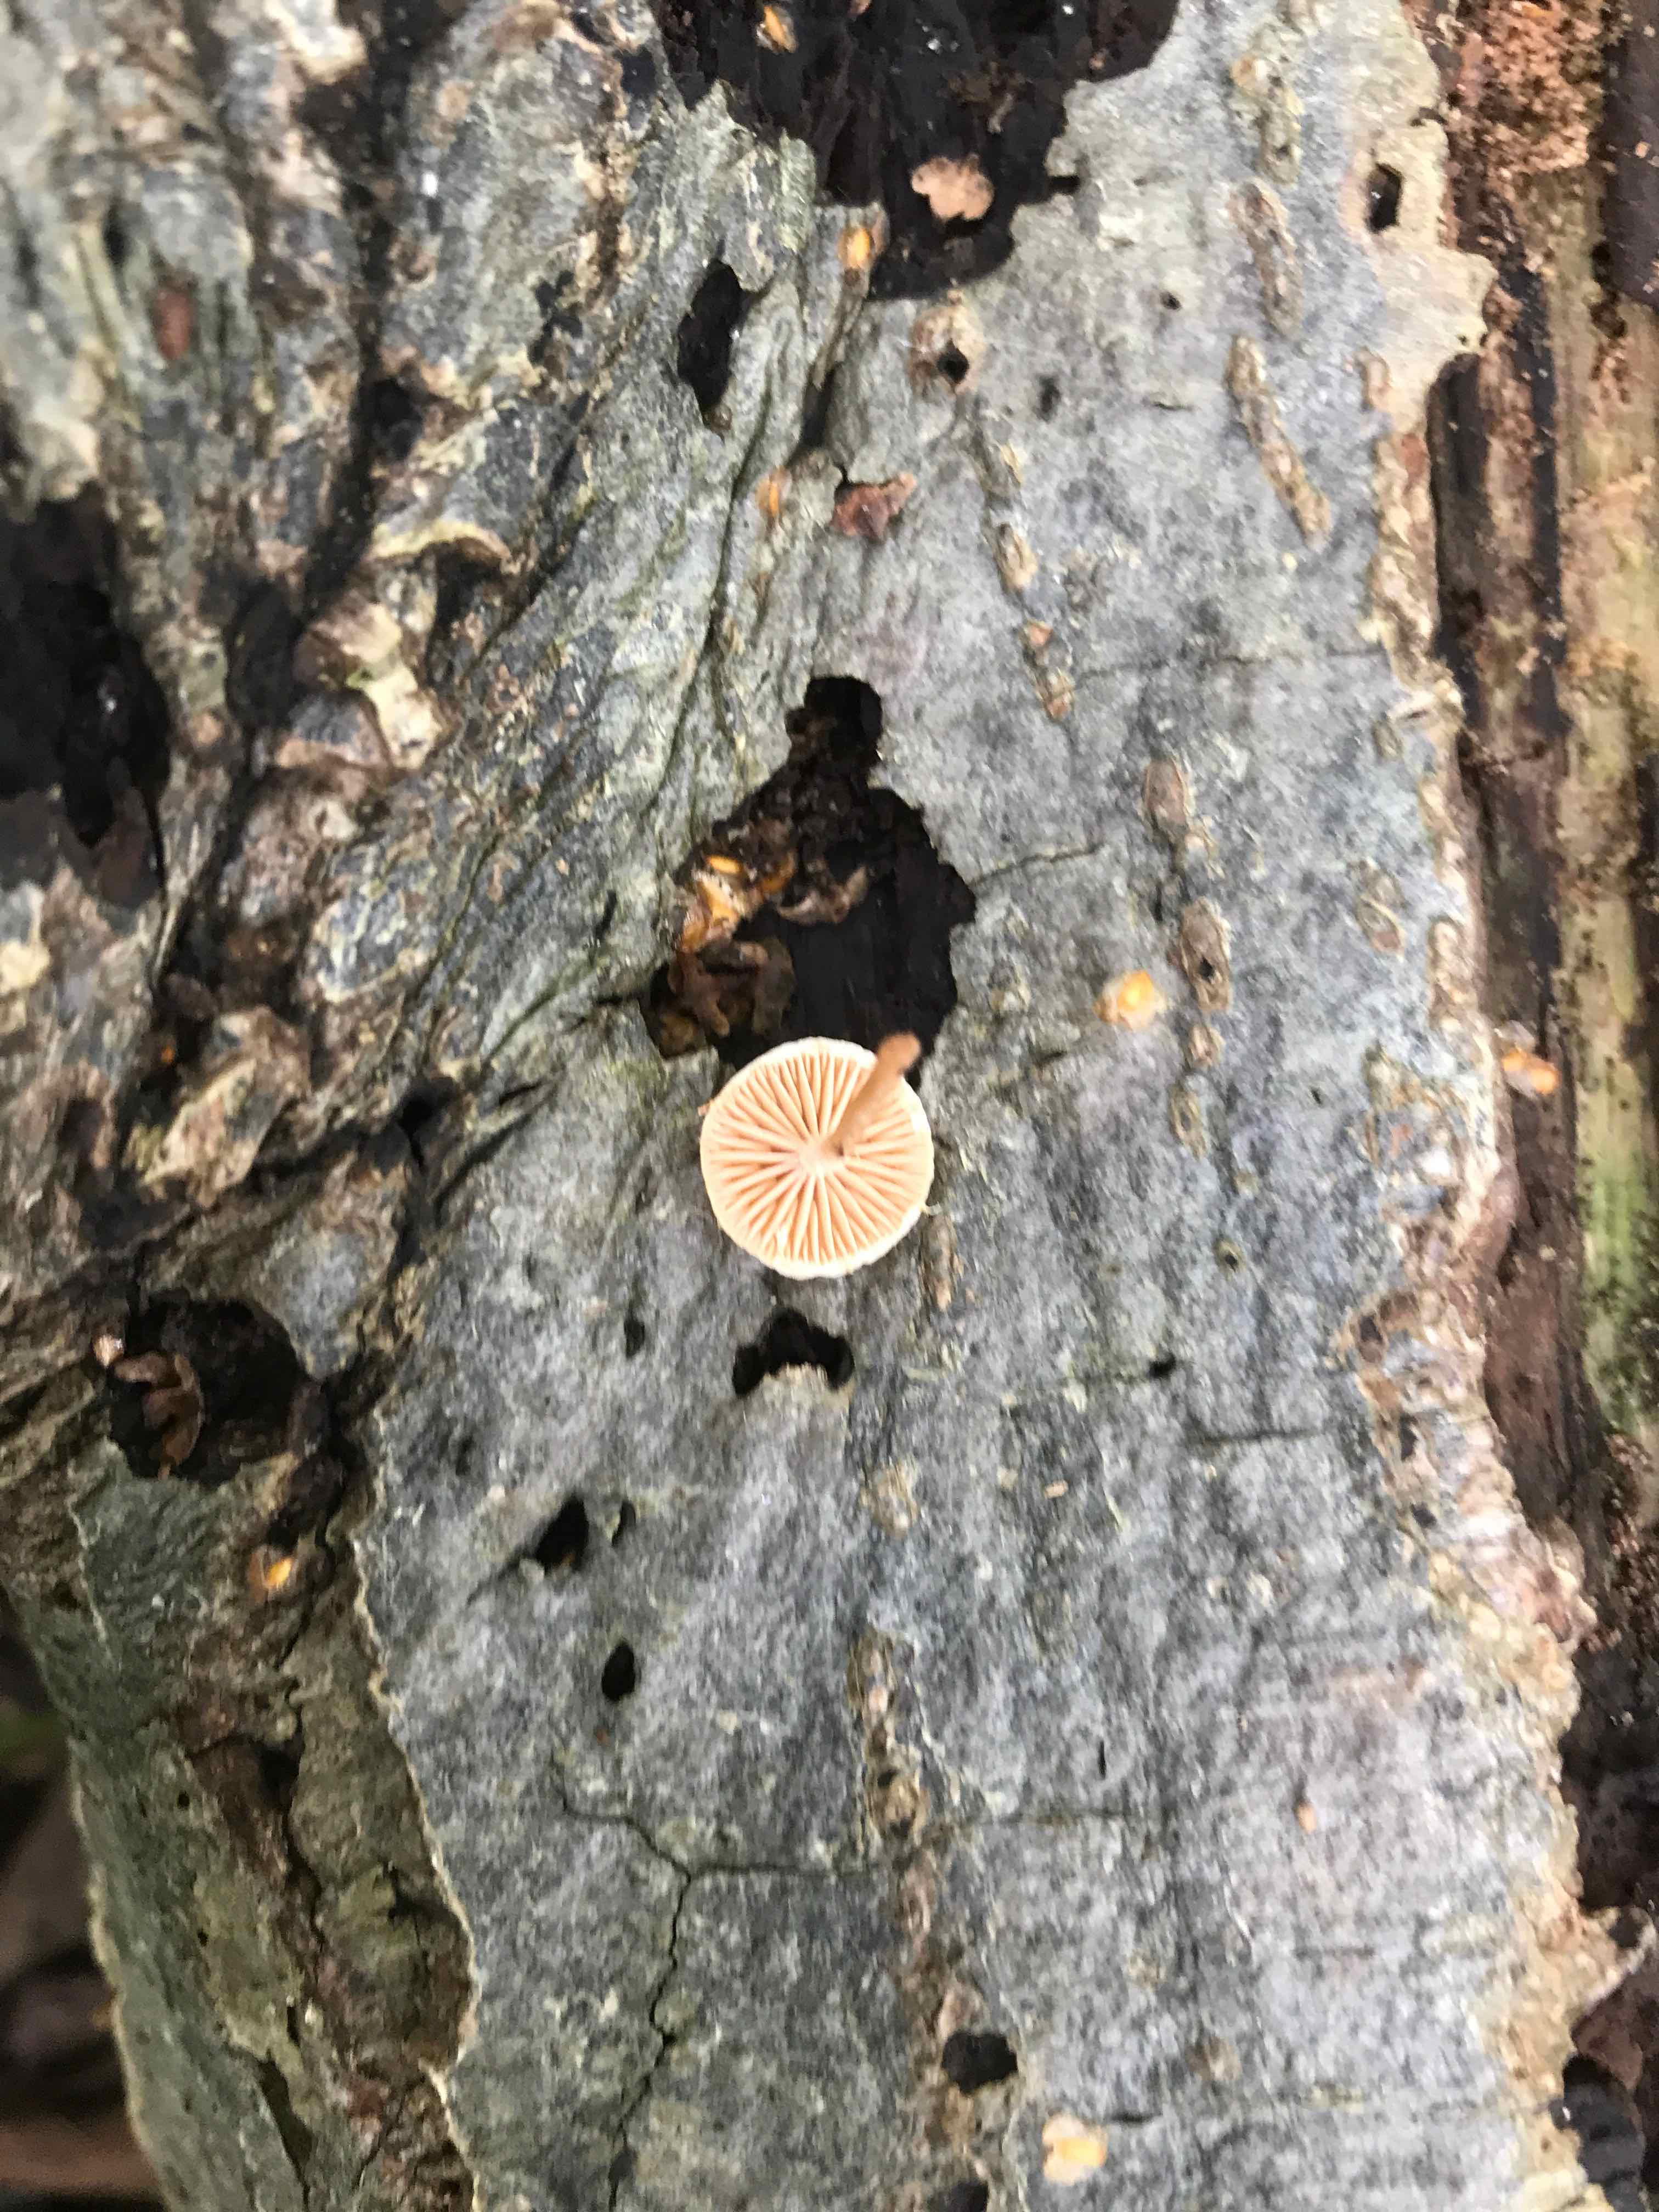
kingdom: Fungi
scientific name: Fungi
